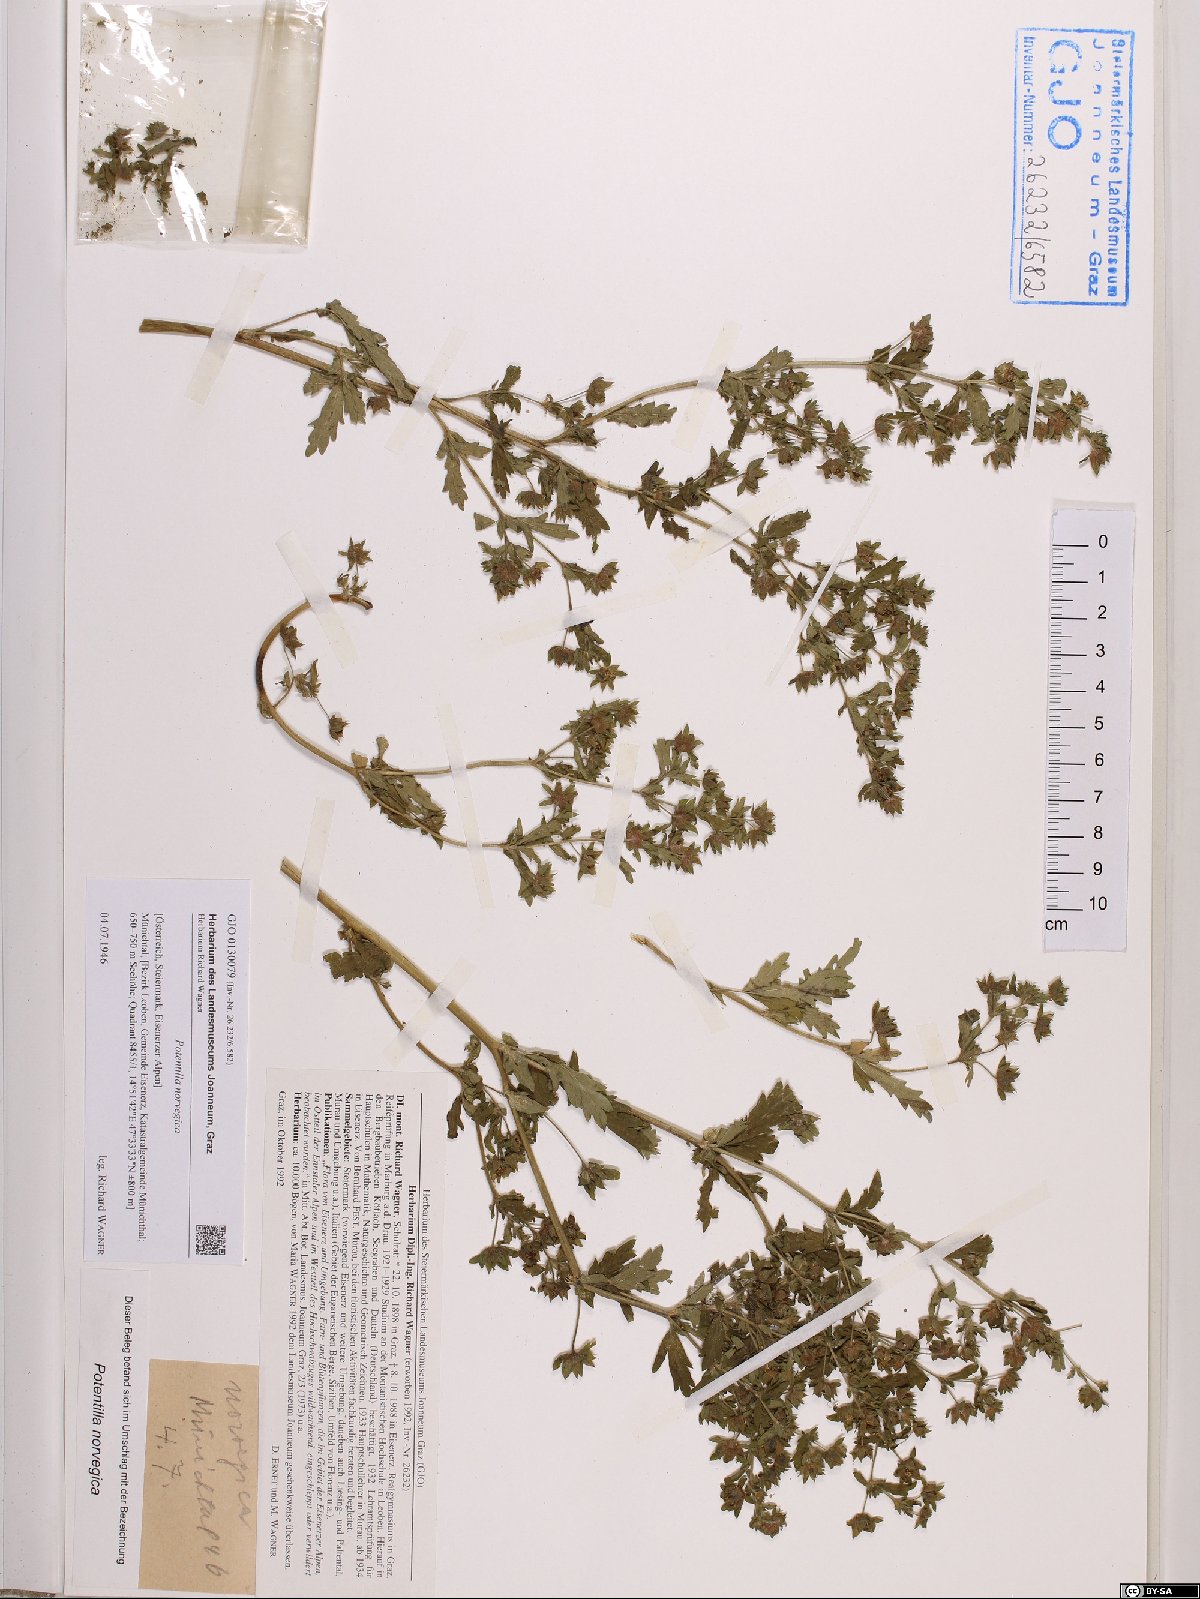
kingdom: Plantae
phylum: Tracheophyta
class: Magnoliopsida
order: Rosales
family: Rosaceae
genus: Potentilla
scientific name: Potentilla norvegica
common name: Ternate-leaved cinquefoil
